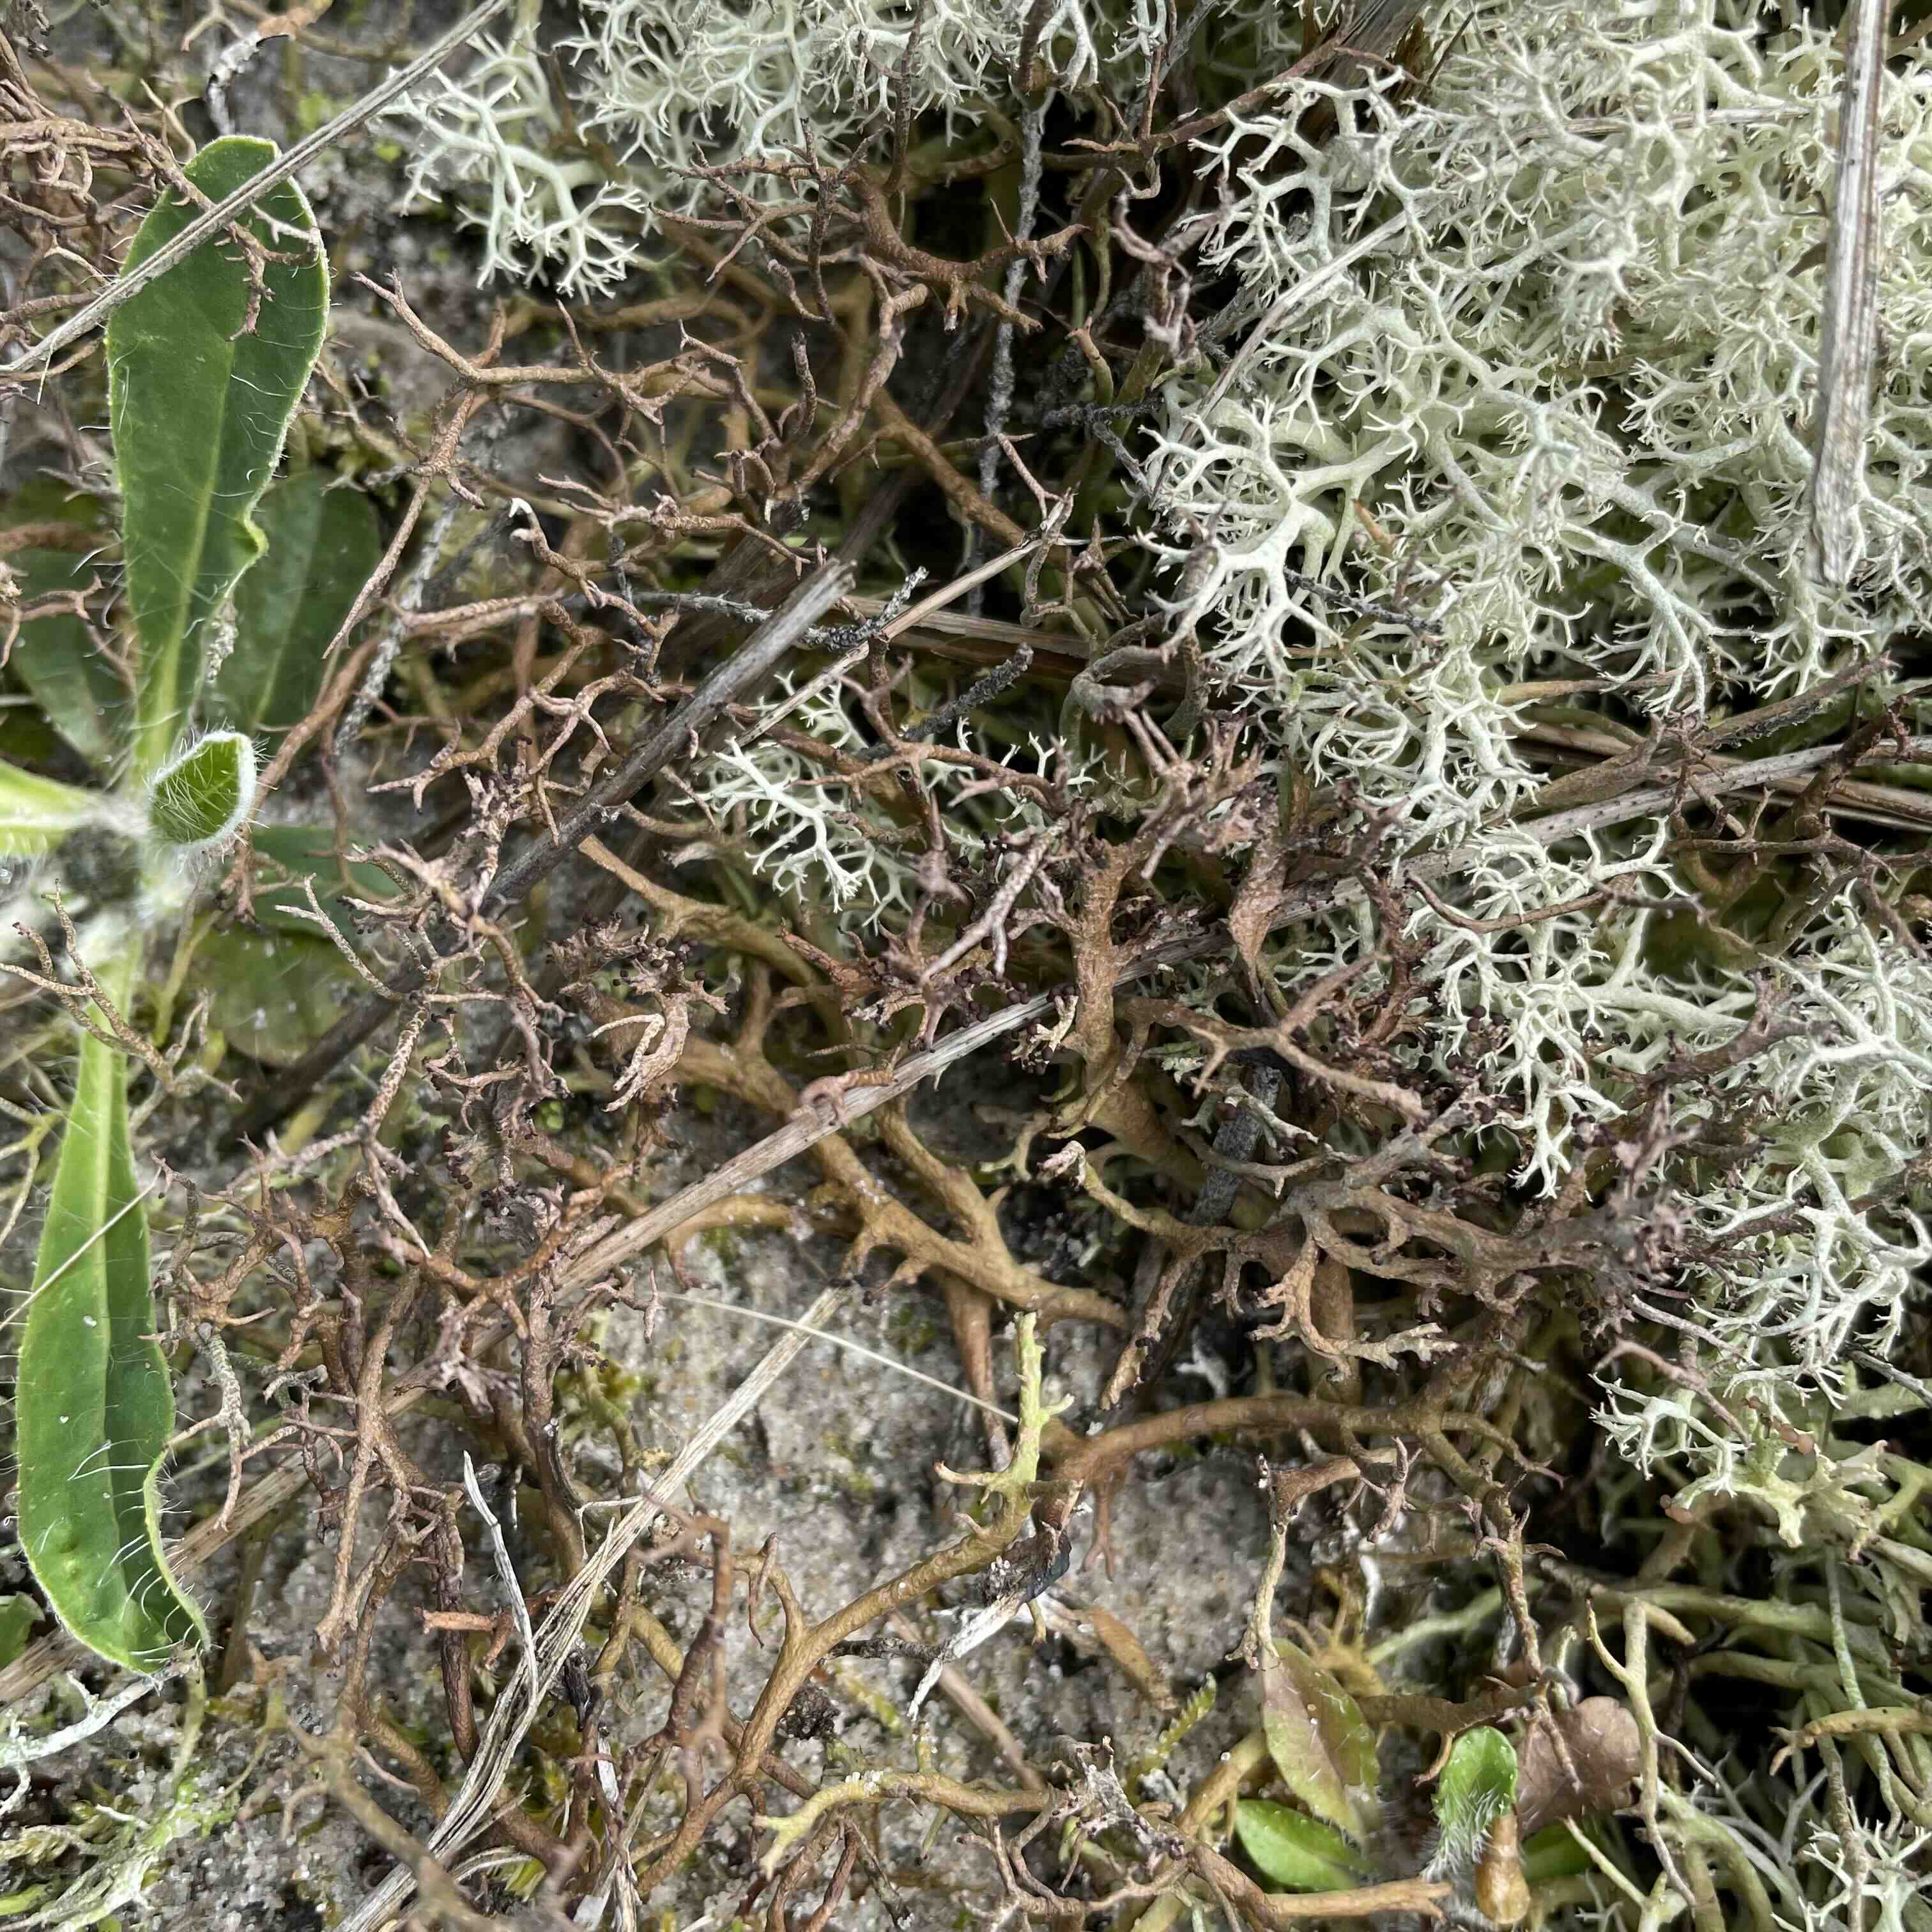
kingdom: Fungi
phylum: Ascomycota
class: Lecanoromycetes
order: Lecanorales
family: Cladoniaceae
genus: Cladonia
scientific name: Cladonia furcata
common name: kløftet bægerlav
